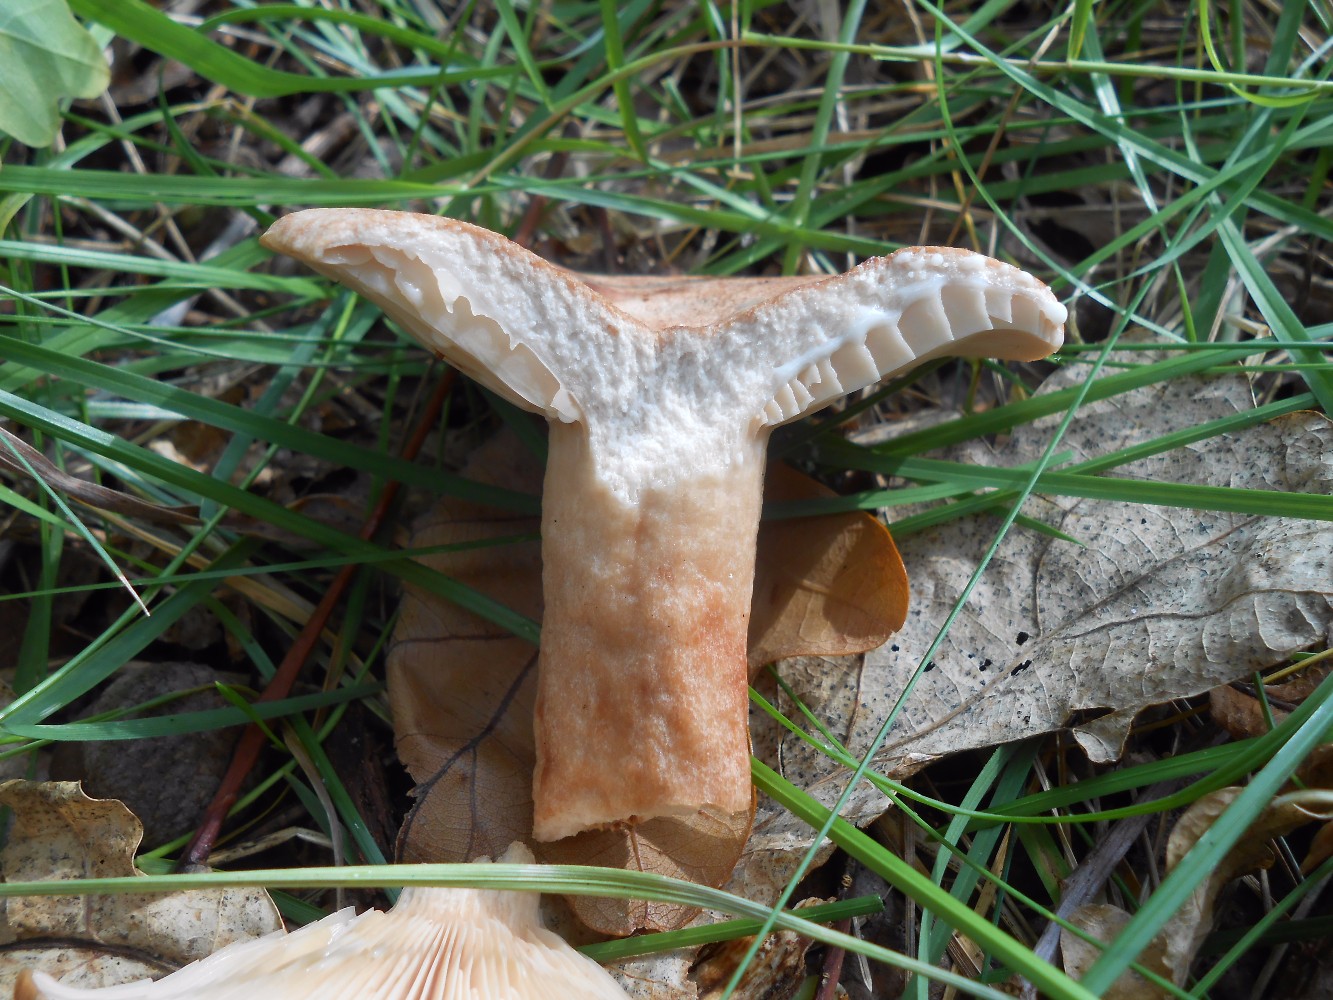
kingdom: Fungi
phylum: Basidiomycota
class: Agaricomycetes
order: Russulales
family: Russulaceae
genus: Lactarius
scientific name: Lactarius quietus
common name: ege-mælkehat
